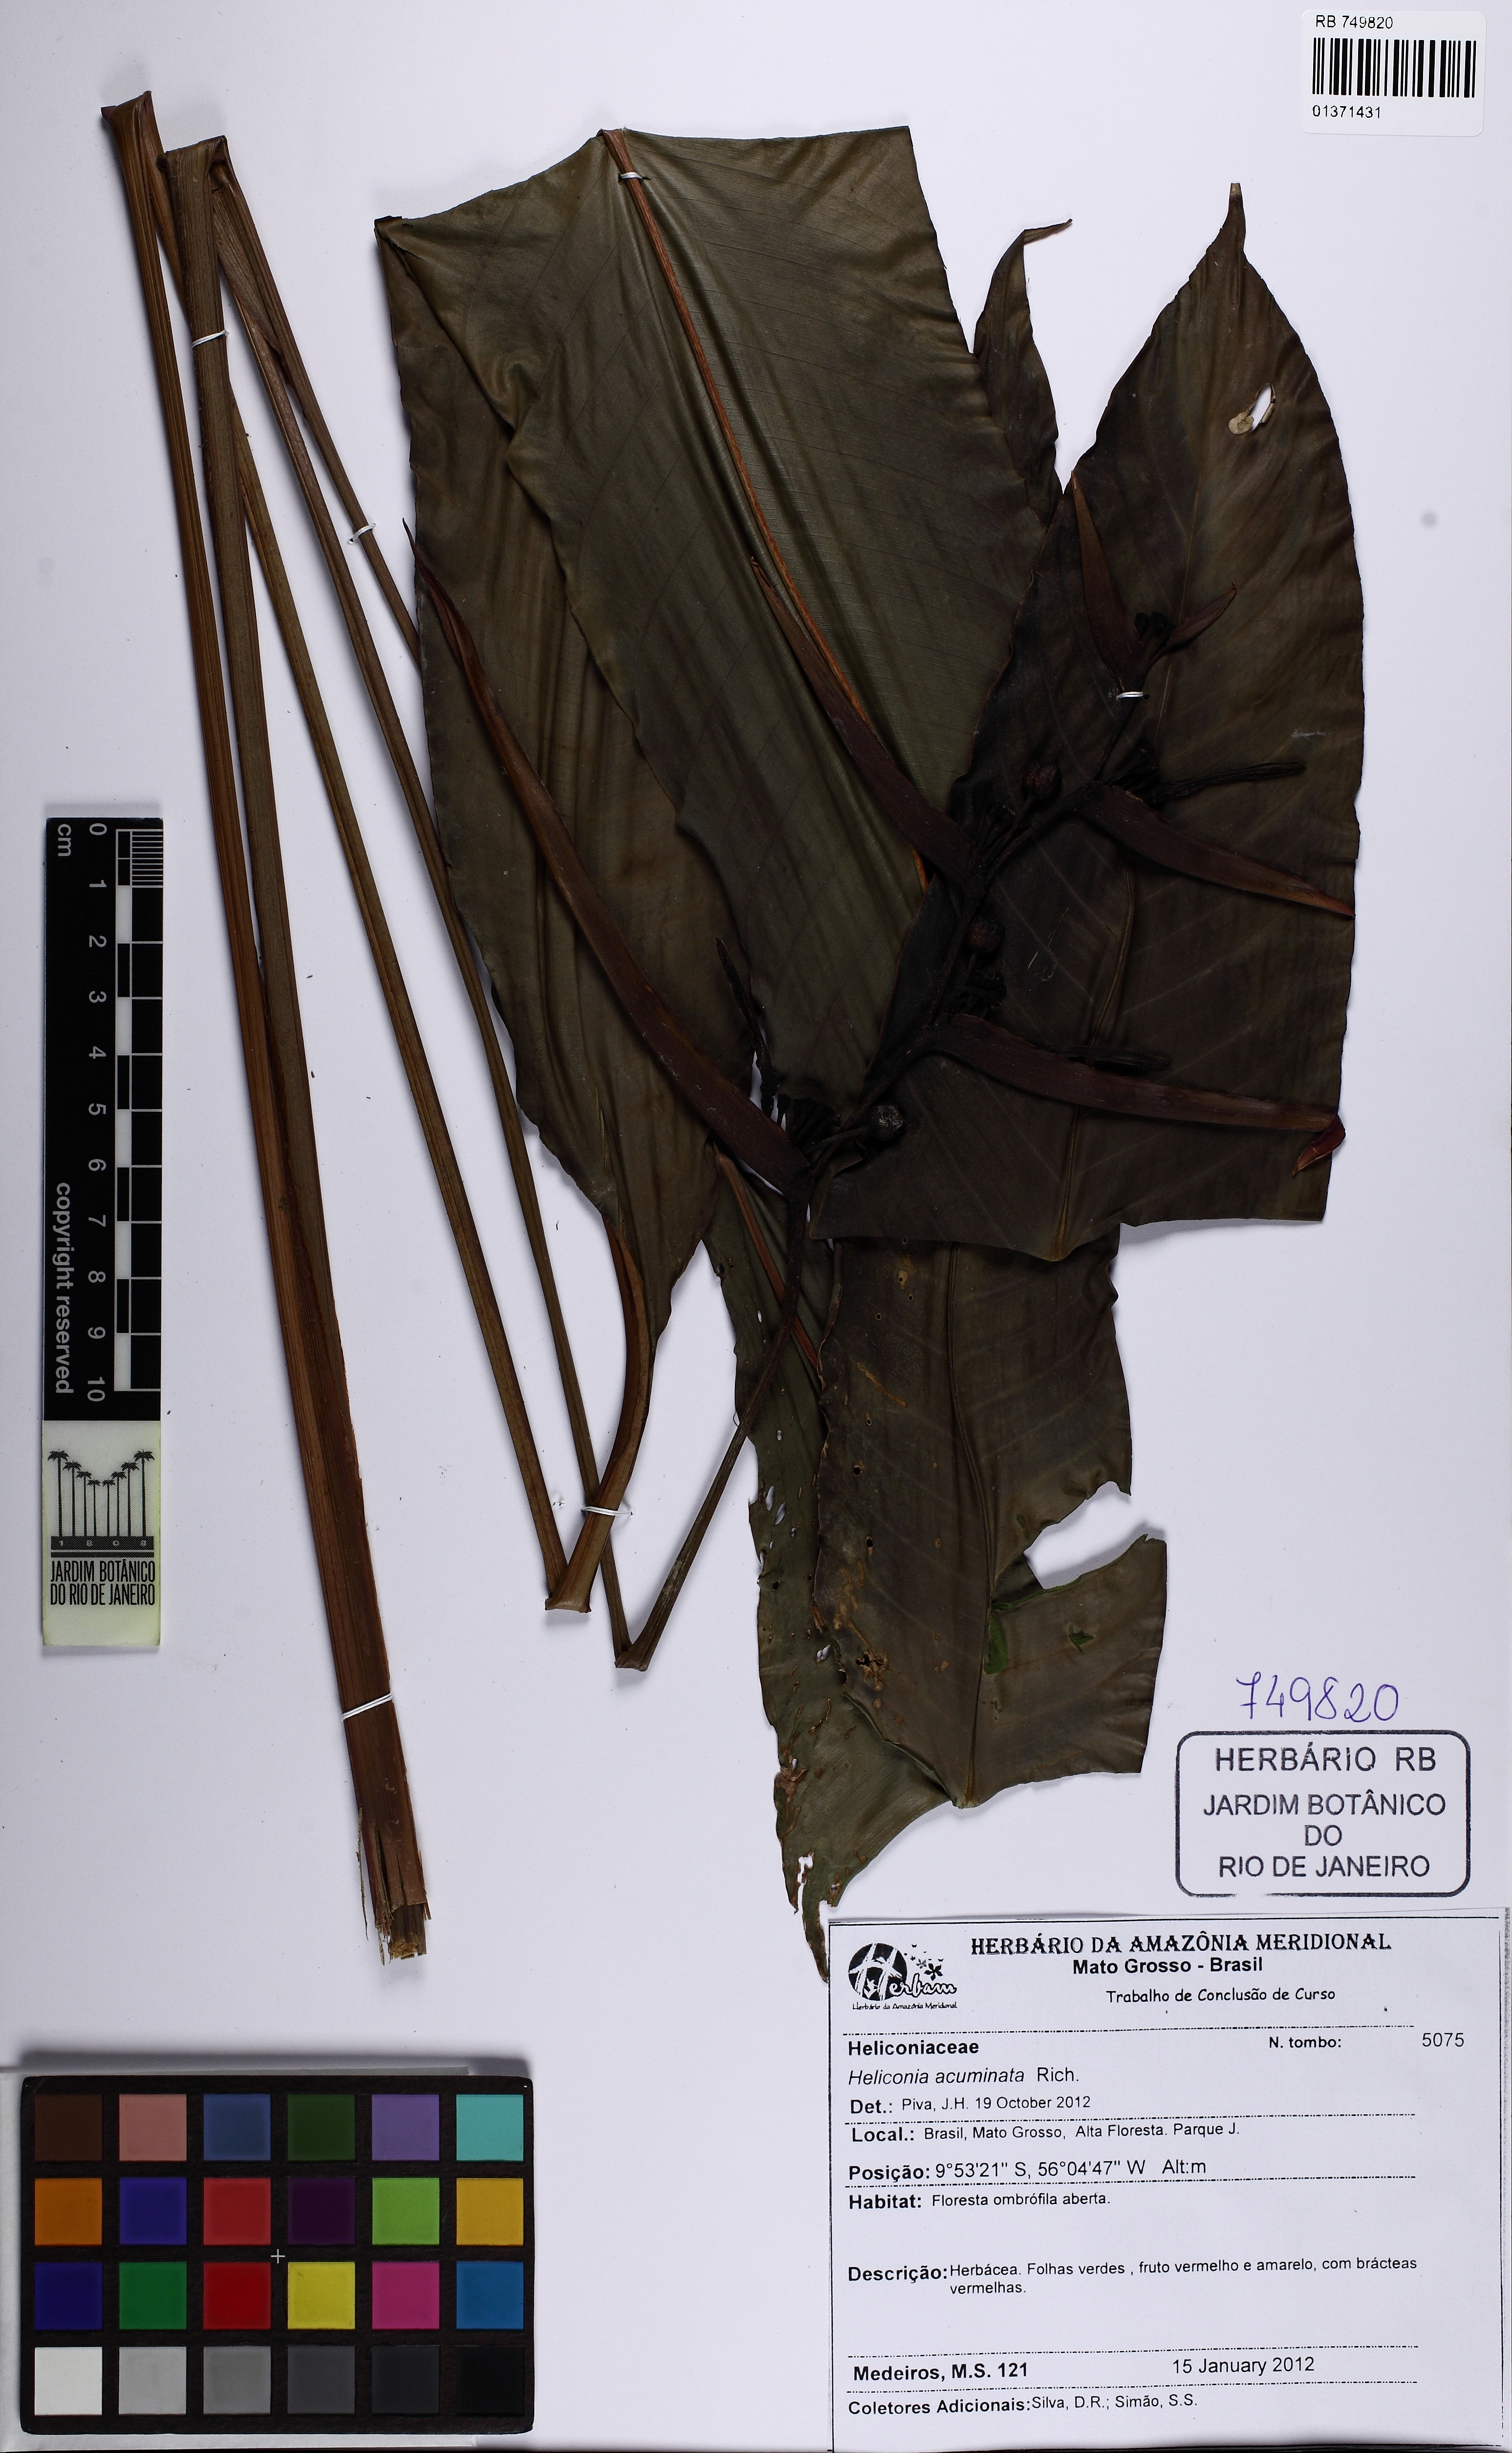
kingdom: Plantae
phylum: Tracheophyta
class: Liliopsida
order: Zingiberales
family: Heliconiaceae
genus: Heliconia
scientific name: Heliconia acuminata
